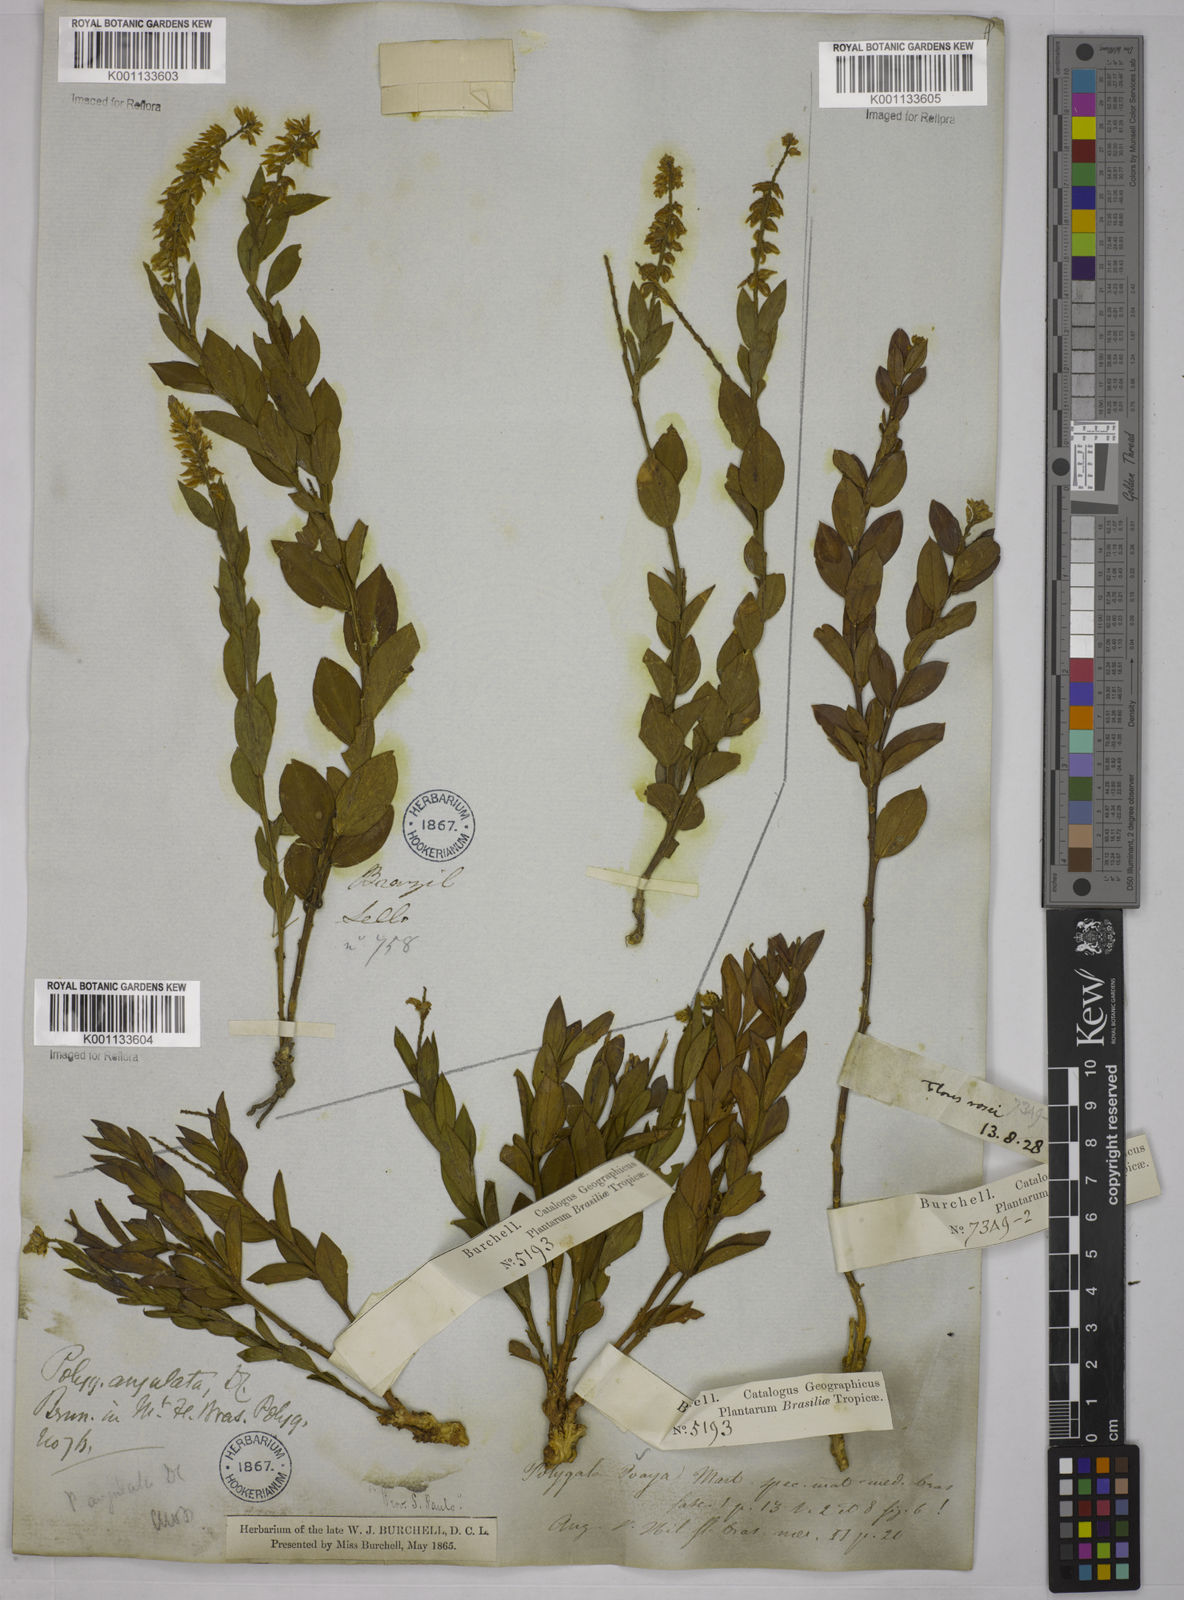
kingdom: Plantae
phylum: Tracheophyta
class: Magnoliopsida
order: Fabales
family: Polygalaceae
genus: Polygala
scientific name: Polygala poaya
